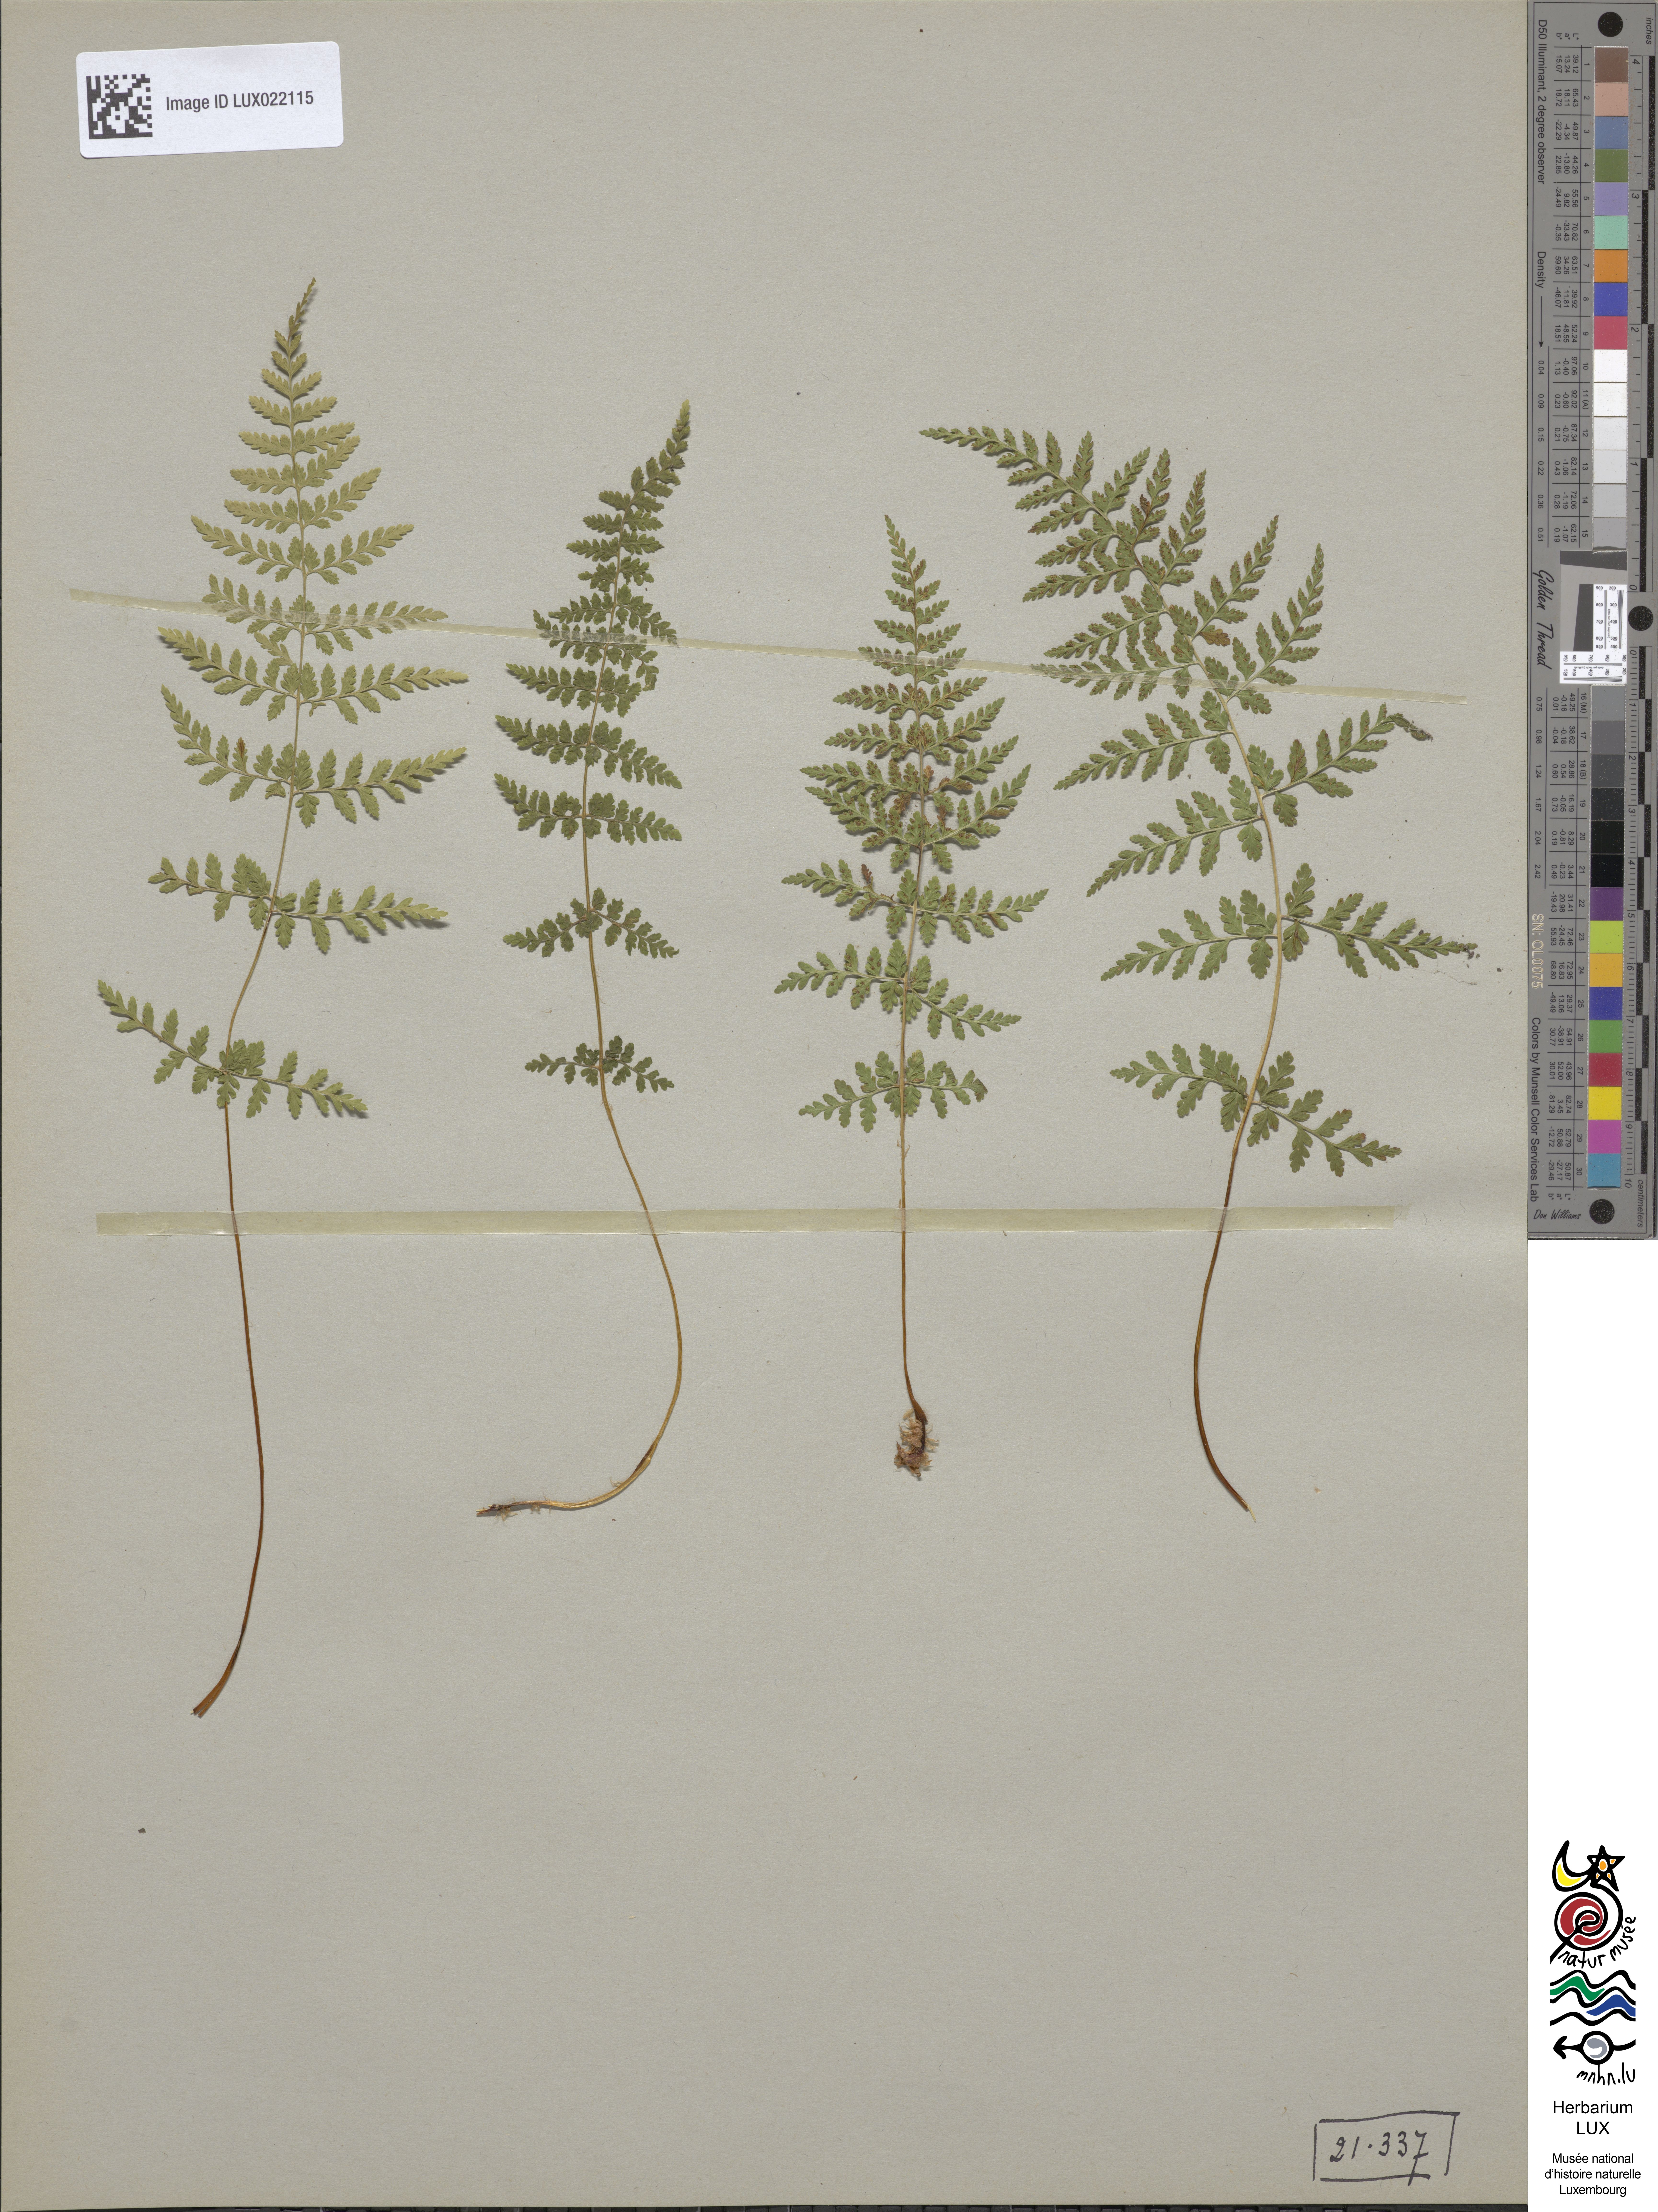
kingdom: Plantae
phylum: Tracheophyta
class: Polypodiopsida
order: Polypodiales
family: Cystopteridaceae
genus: Cystopteris
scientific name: Cystopteris fragilis
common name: Brittle bladder fern
